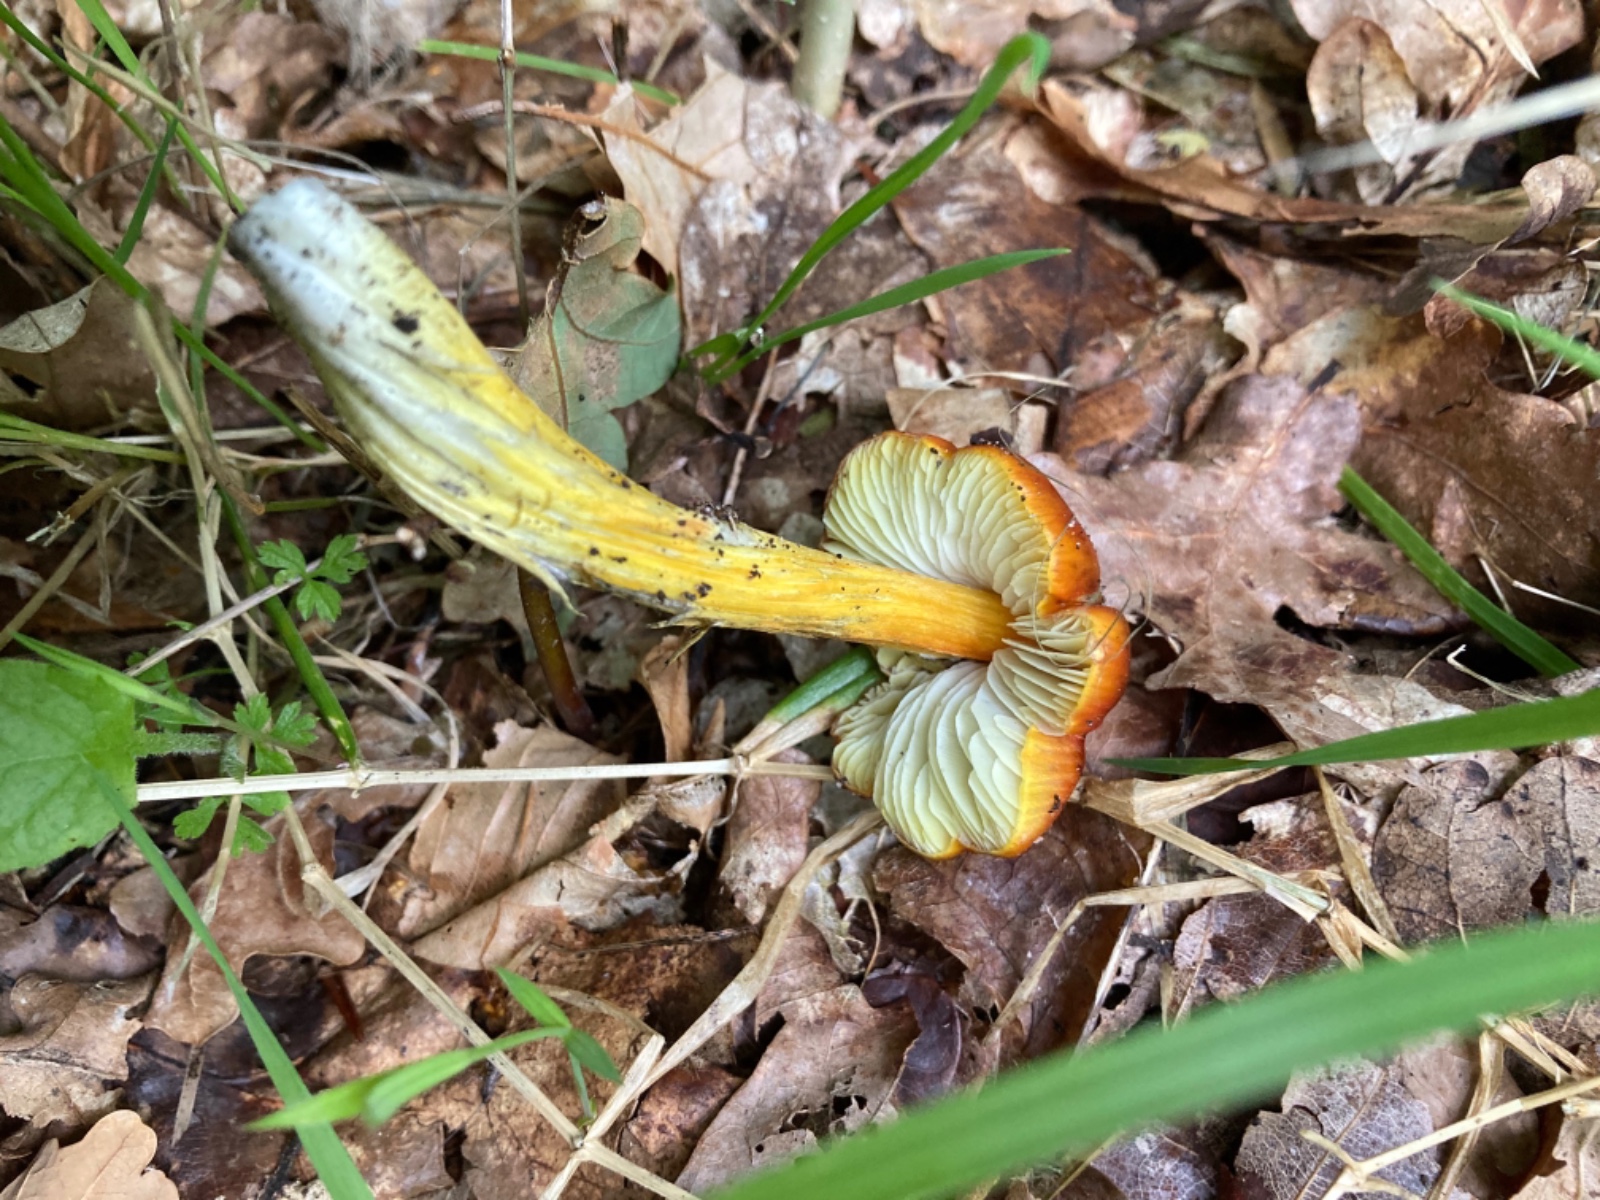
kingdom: Fungi
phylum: Basidiomycota
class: Agaricomycetes
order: Agaricales
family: Hygrophoraceae
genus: Hygrocybe
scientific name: Hygrocybe conica
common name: kegle-vokshat
